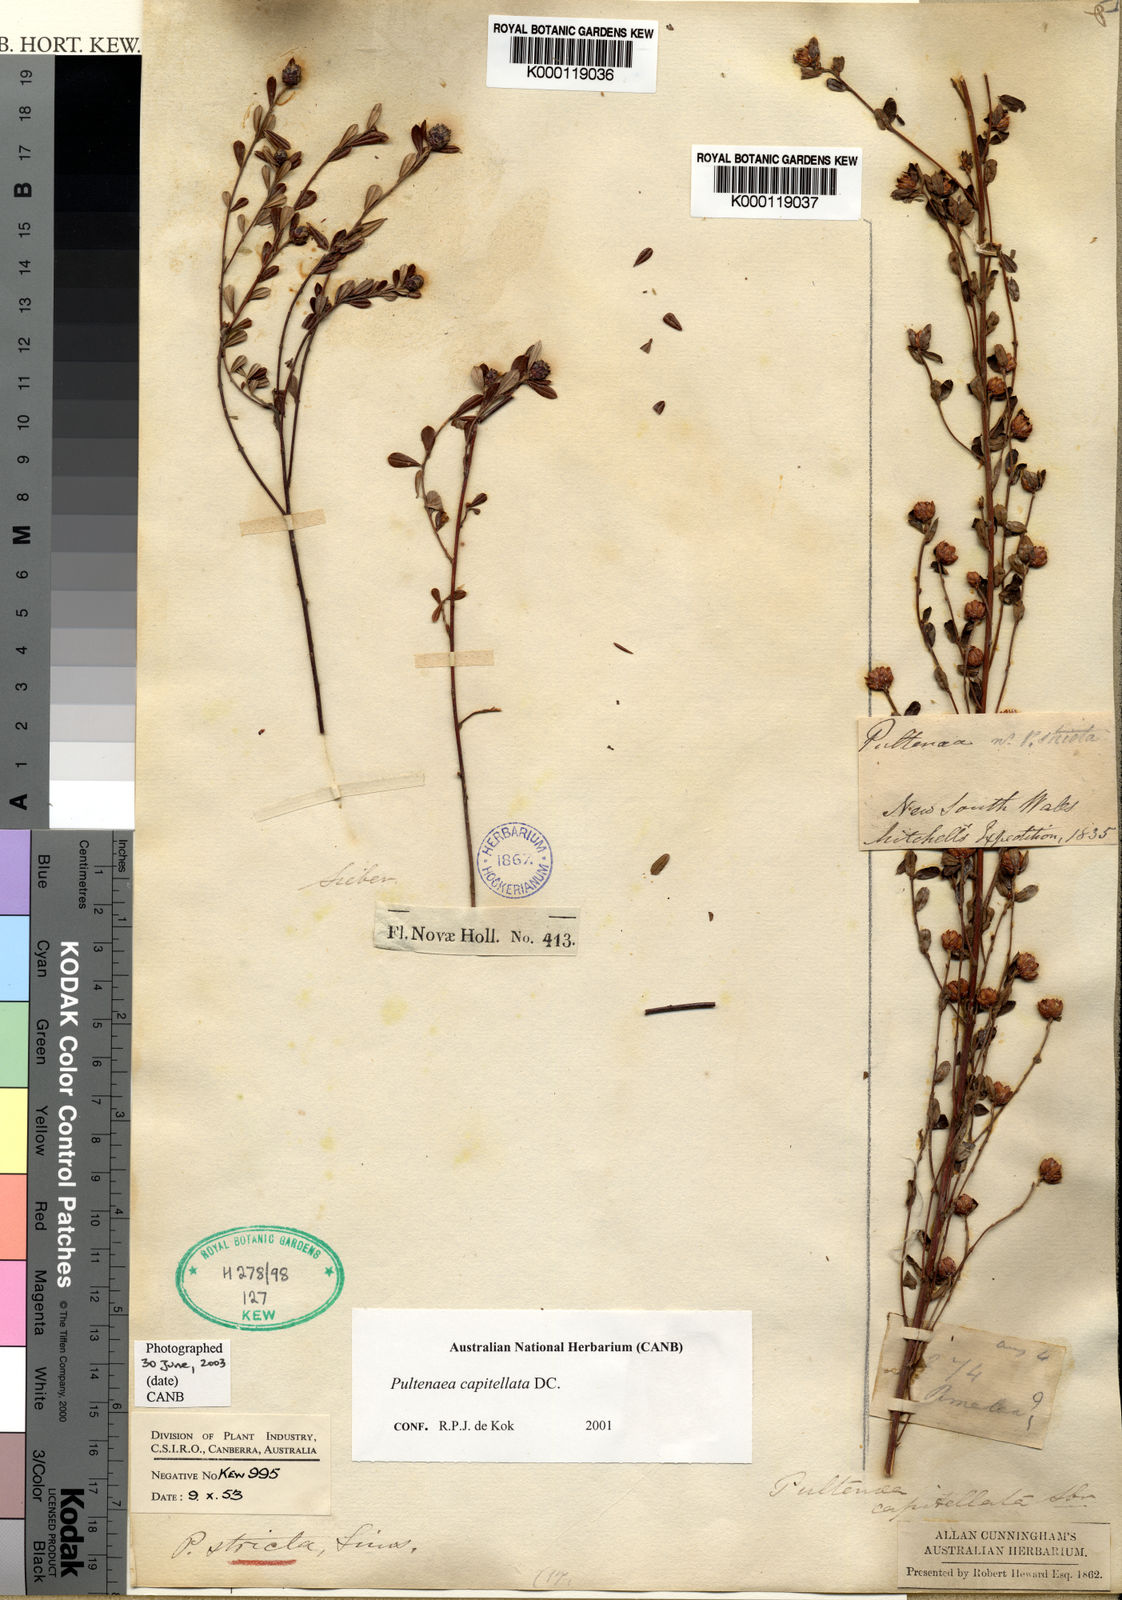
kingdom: Plantae
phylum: Tracheophyta
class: Magnoliopsida
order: Fabales
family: Fabaceae
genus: Pultenaea
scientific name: Pultenaea capitellata
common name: Hard-head bush-pea
